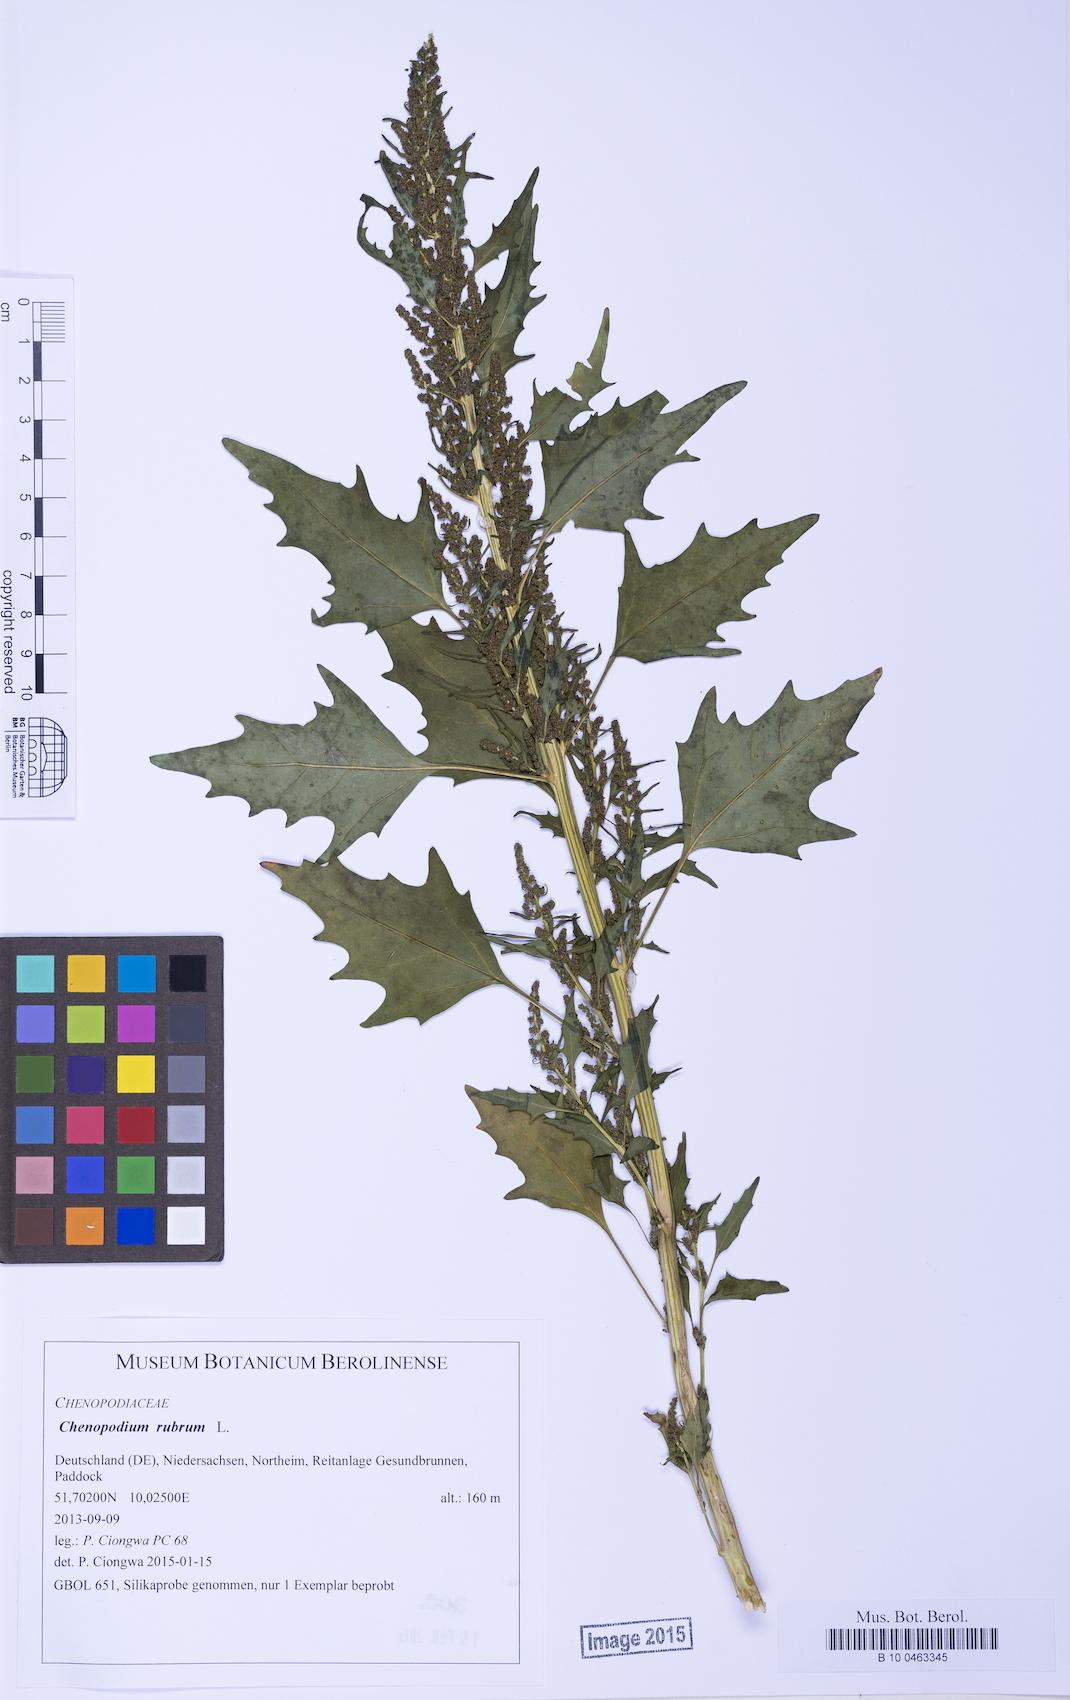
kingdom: Plantae
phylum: Tracheophyta
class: Magnoliopsida
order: Caryophyllales
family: Amaranthaceae
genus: Oxybasis
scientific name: Oxybasis rubra
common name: Red goosefoot
